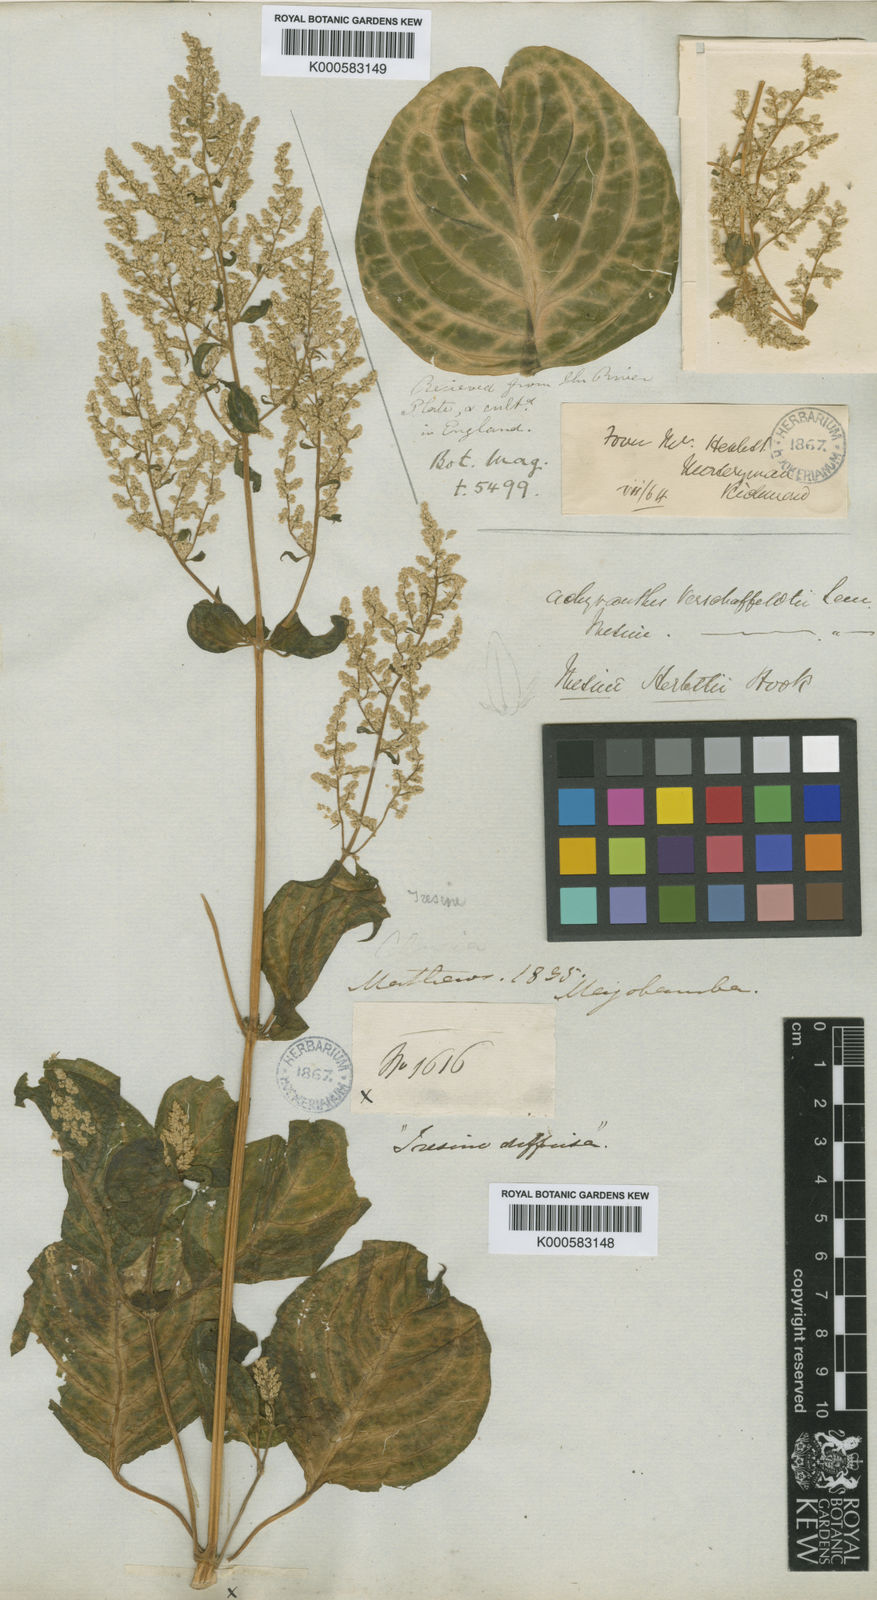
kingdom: Plantae
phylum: Tracheophyta
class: Magnoliopsida
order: Caryophyllales
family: Amaranthaceae
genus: Iresine
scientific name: Iresine diffusa
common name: Juba's-bush
